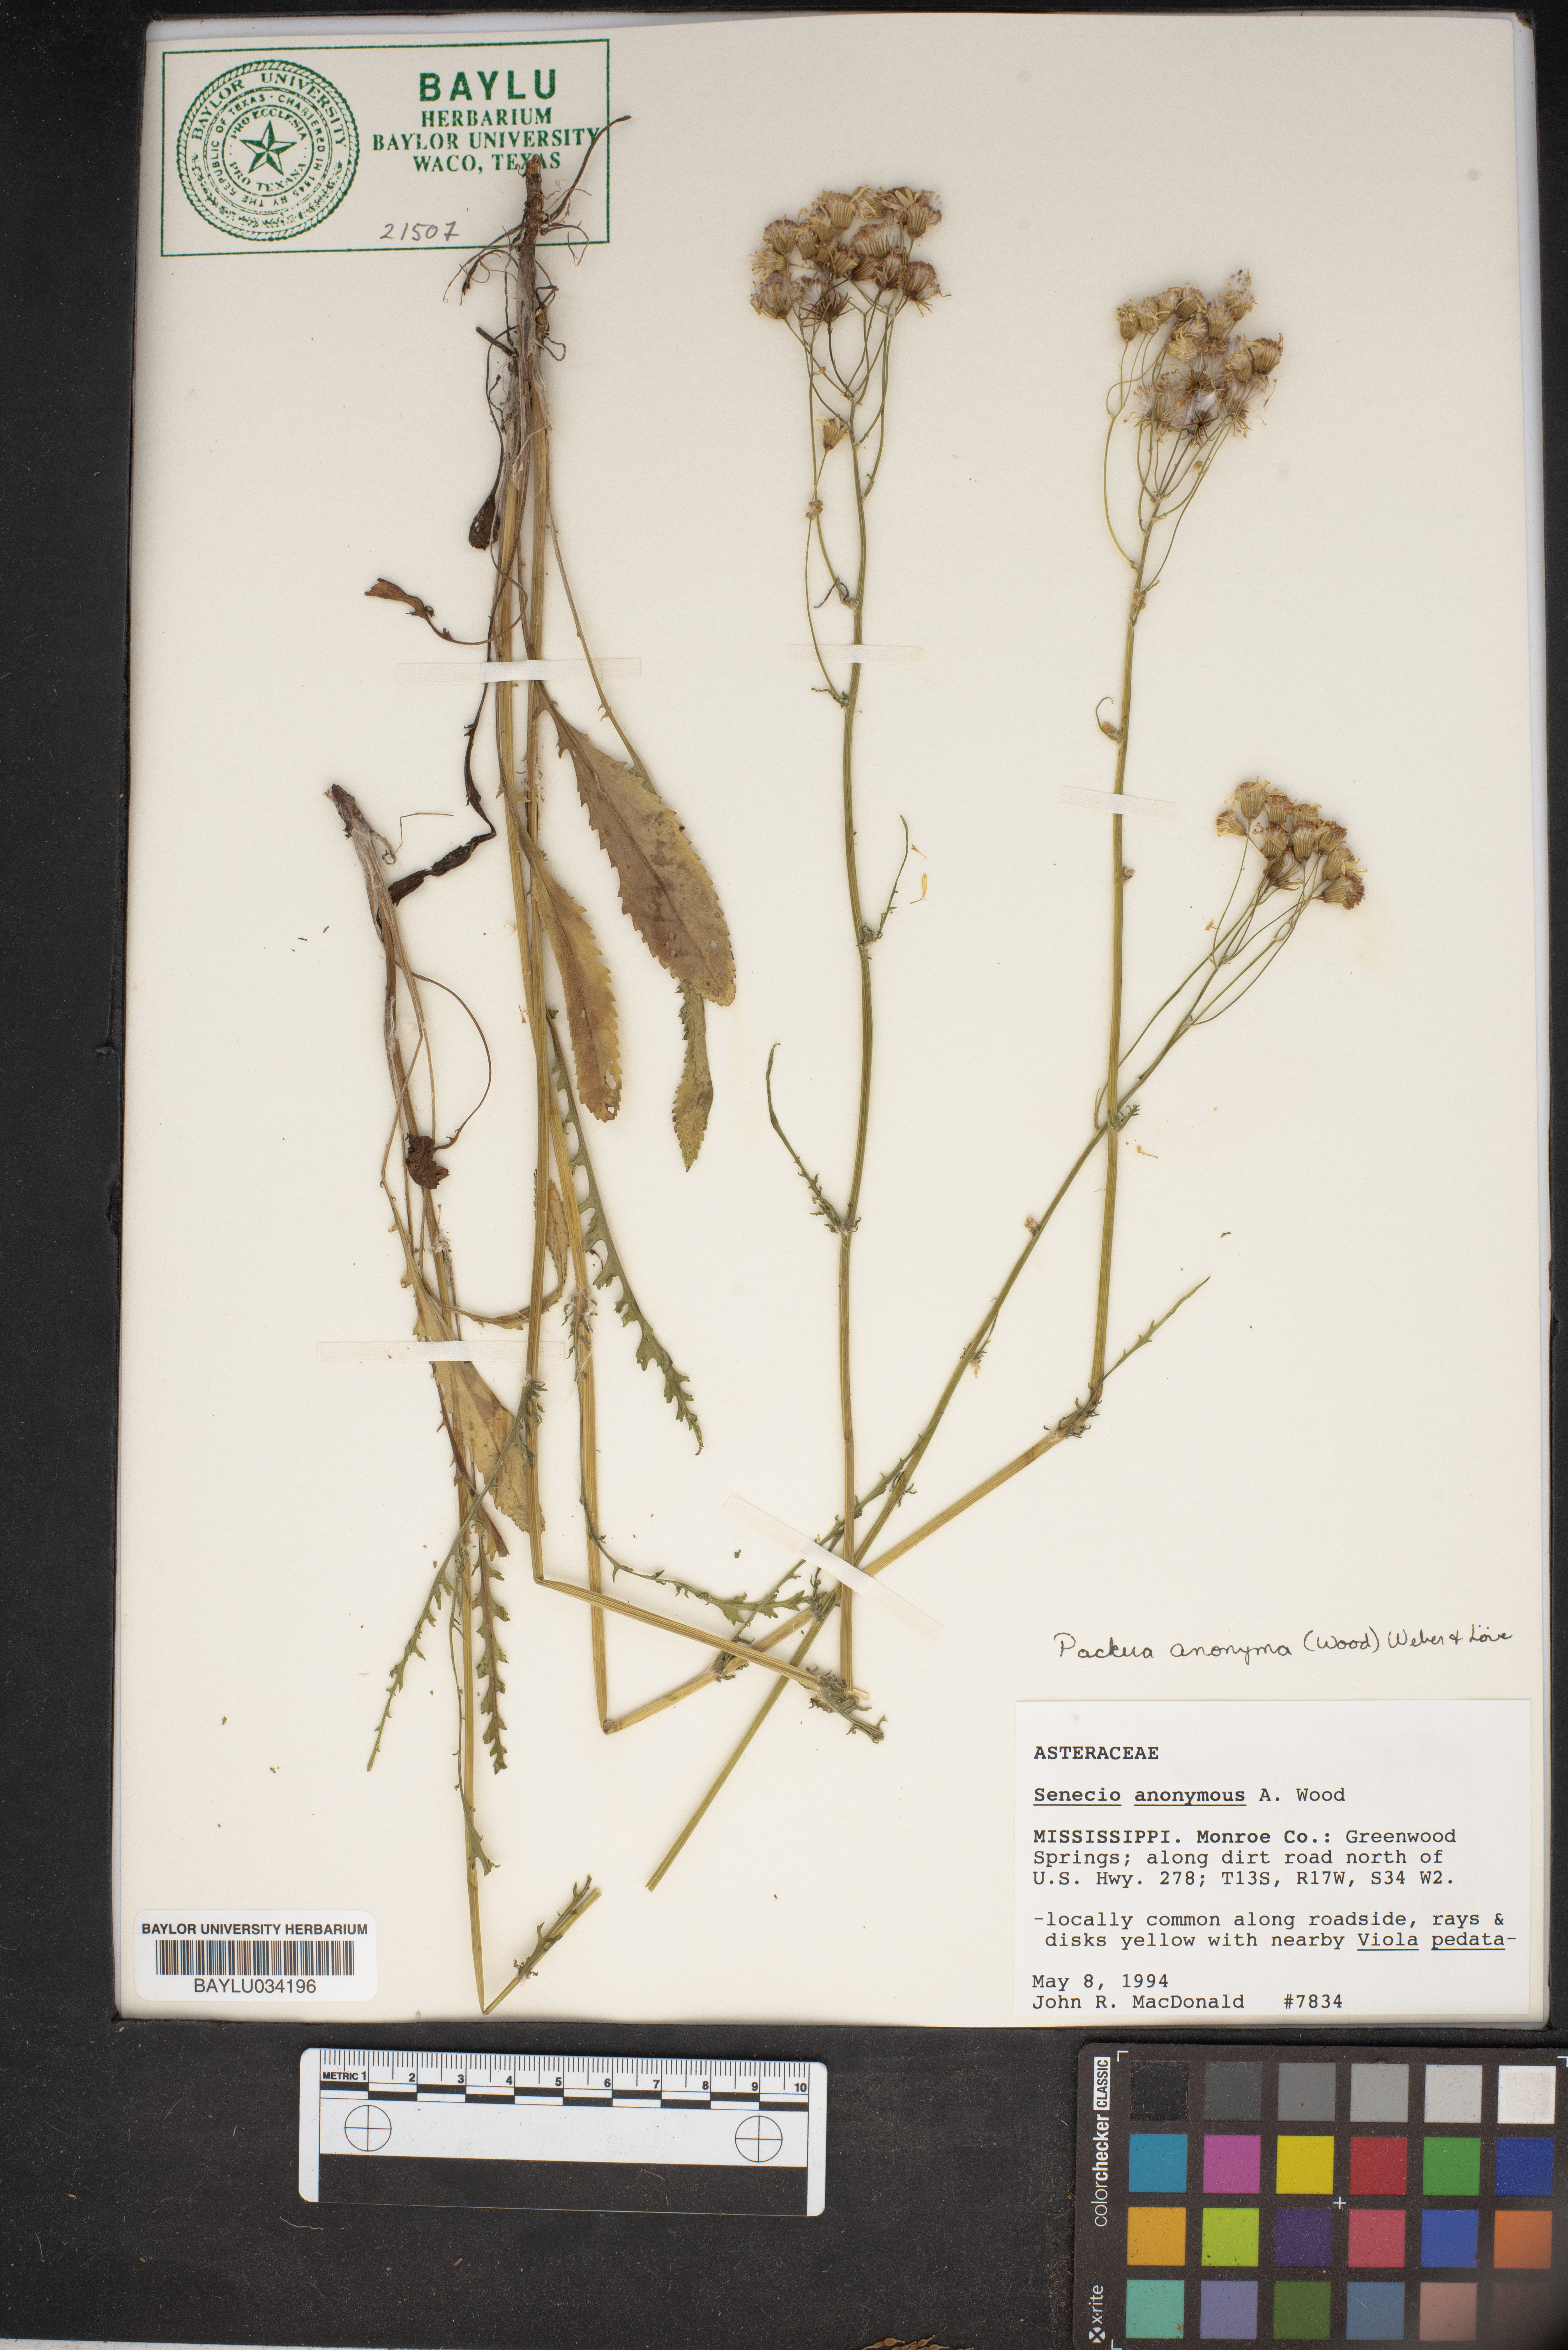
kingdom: Plantae
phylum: Tracheophyta
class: Magnoliopsida
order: Asterales
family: Asteraceae
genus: Packera
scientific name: Packera anonyma
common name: Small ragwort
